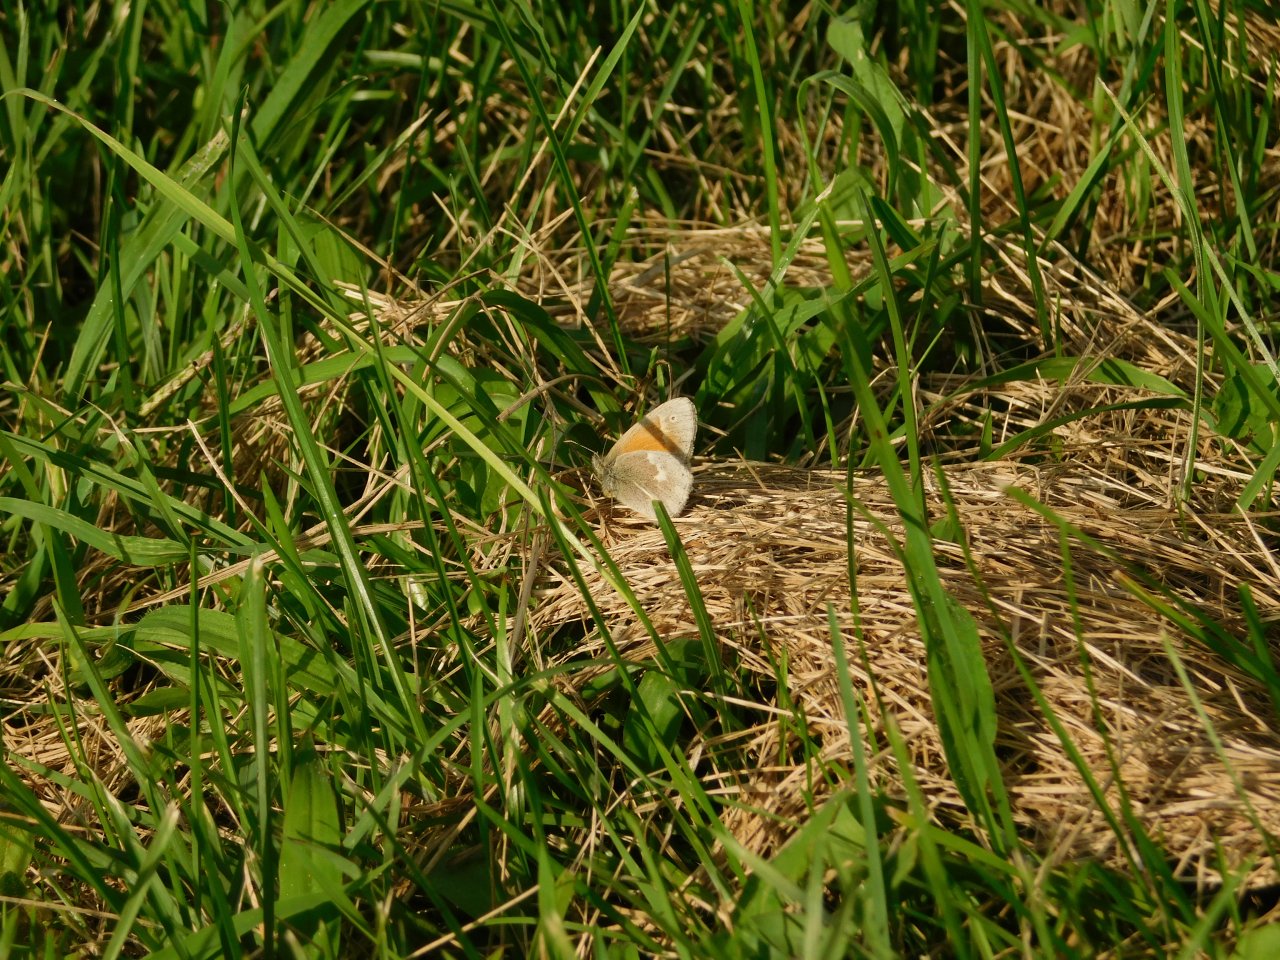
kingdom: Animalia
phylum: Arthropoda
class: Insecta
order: Lepidoptera
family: Nymphalidae
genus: Coenonympha
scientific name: Coenonympha tullia
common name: Large Heath
